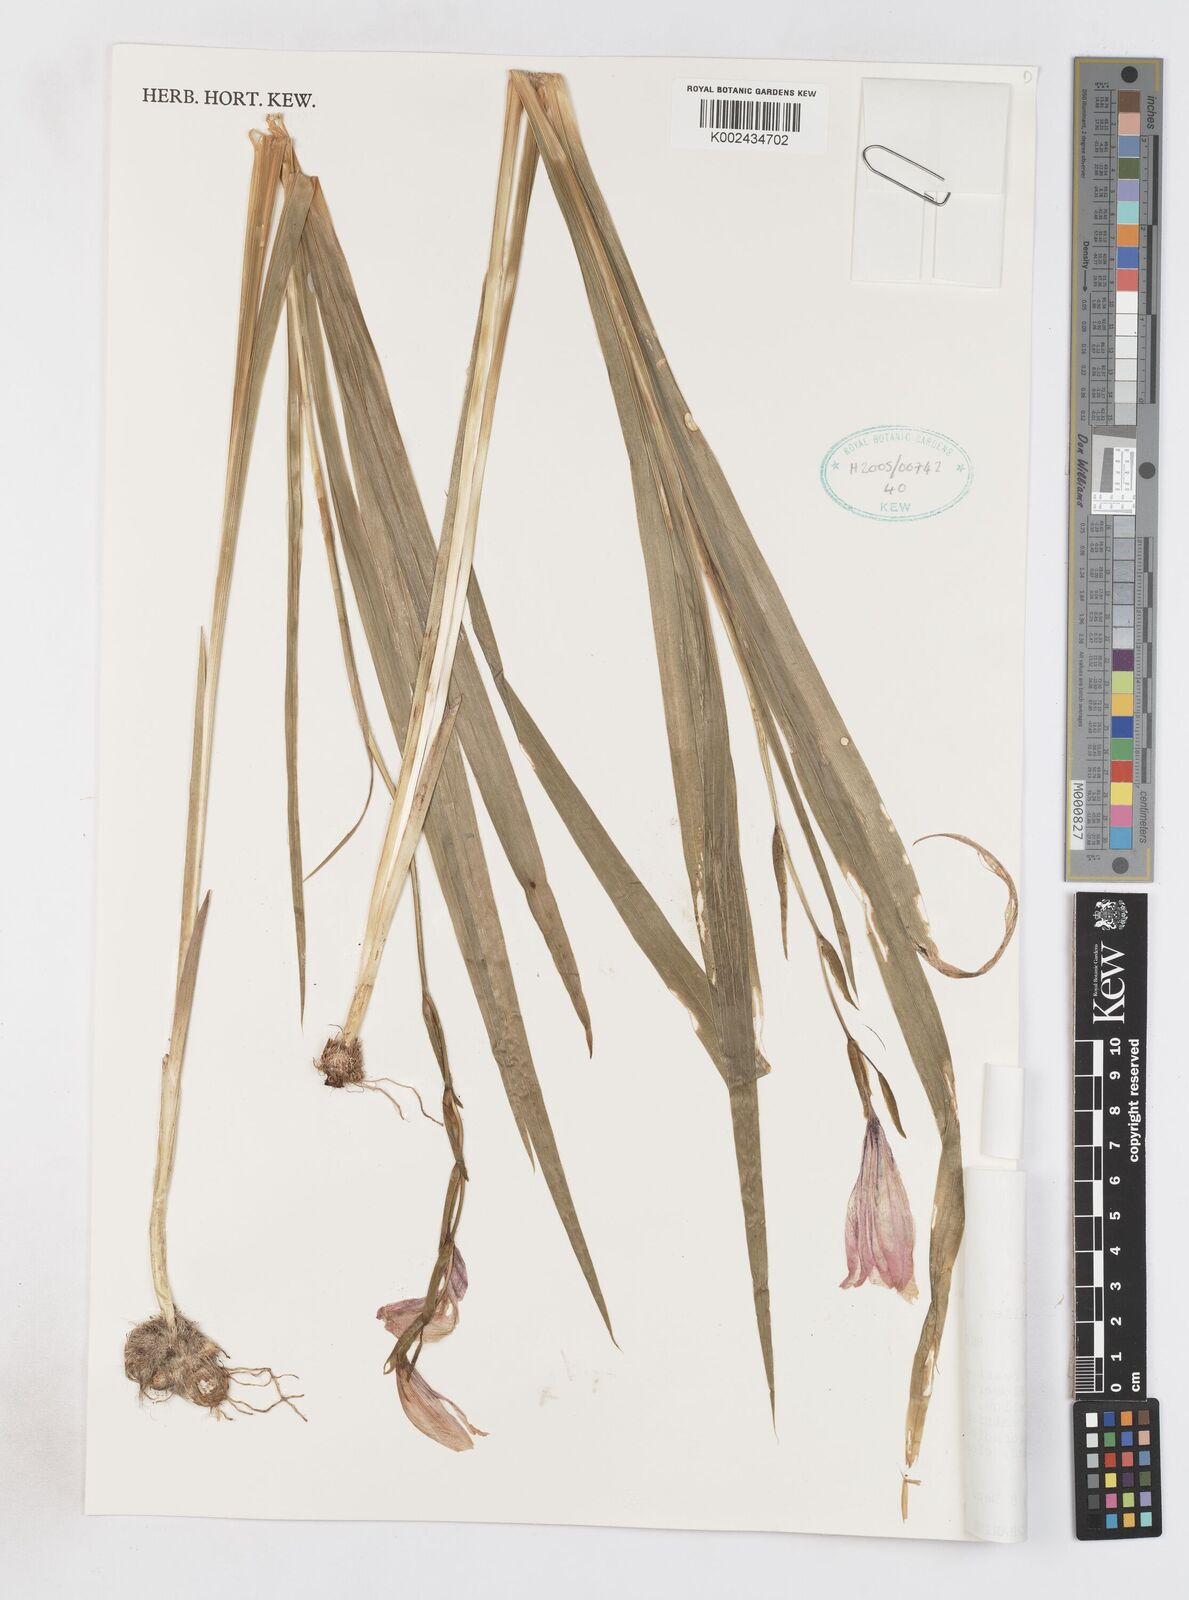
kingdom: Plantae
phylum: Tracheophyta
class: Liliopsida
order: Asparagales
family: Iridaceae
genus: Gladiolus
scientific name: Gladiolus decoratus
